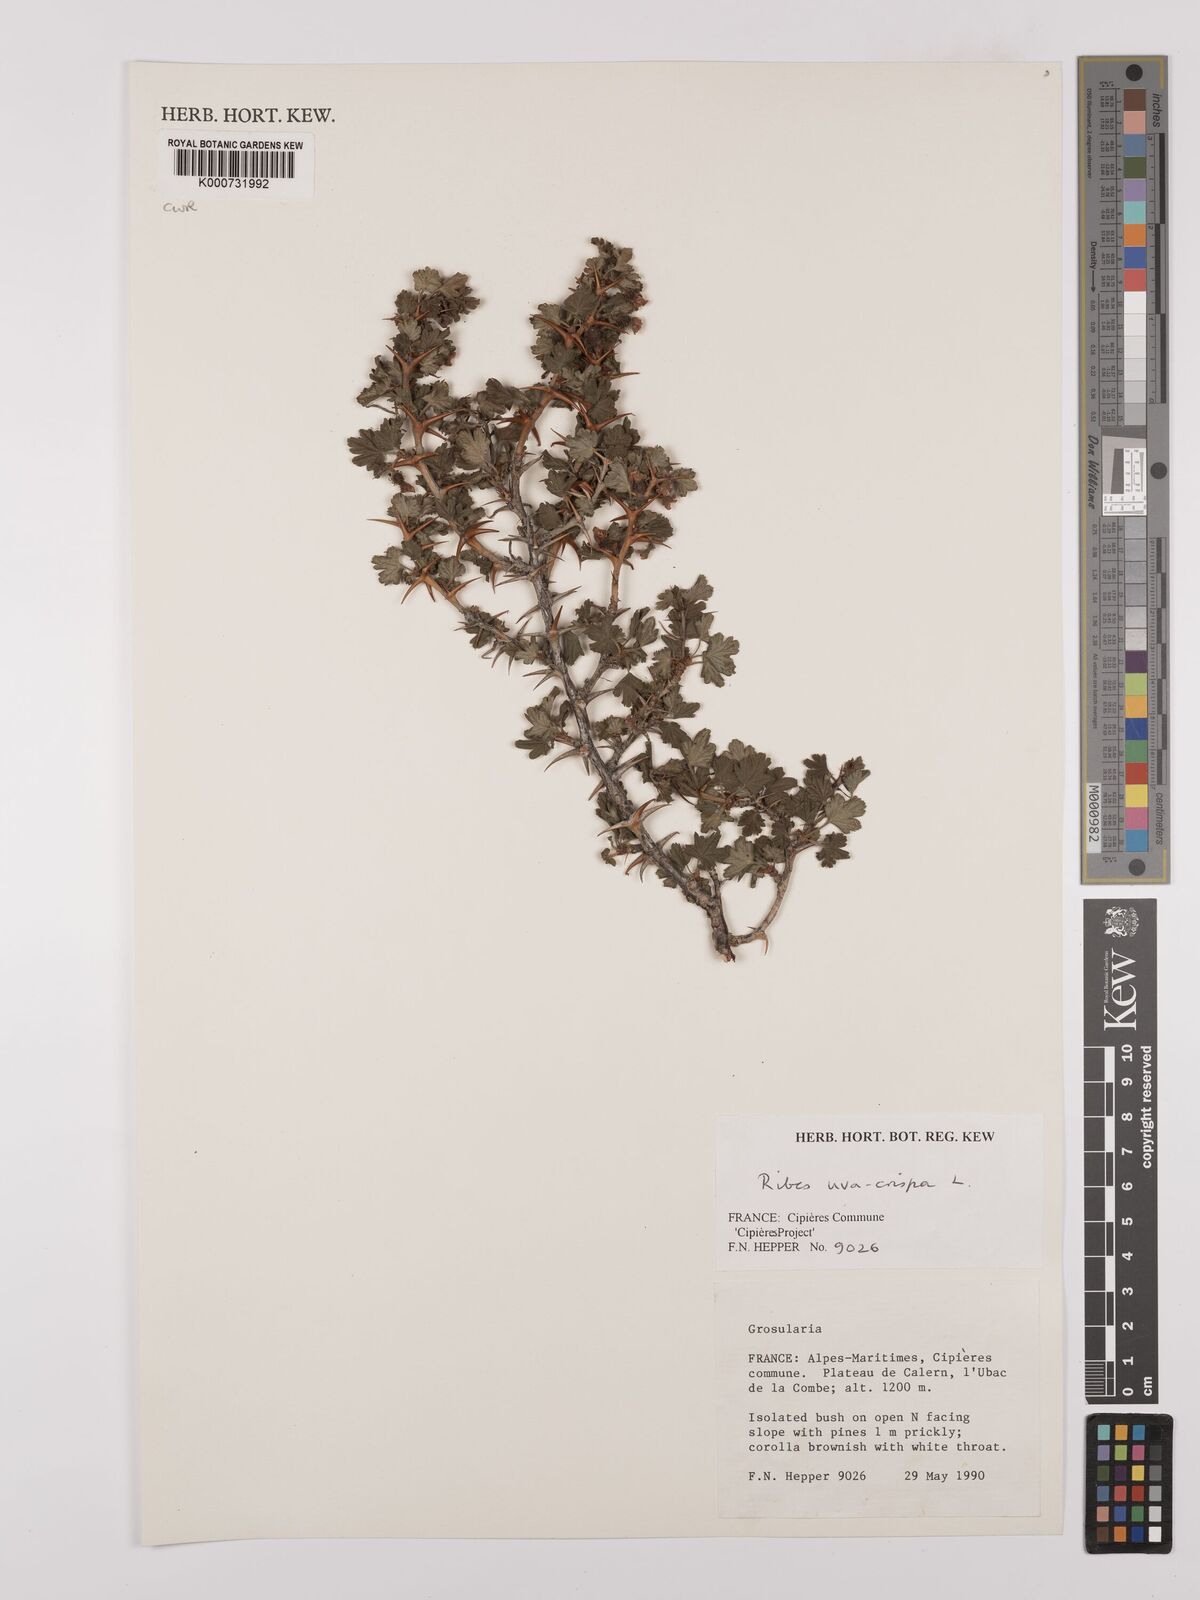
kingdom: Plantae
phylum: Tracheophyta
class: Magnoliopsida
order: Saxifragales
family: Grossulariaceae
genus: Ribes
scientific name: Ribes uva-crispa
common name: Gooseberry
